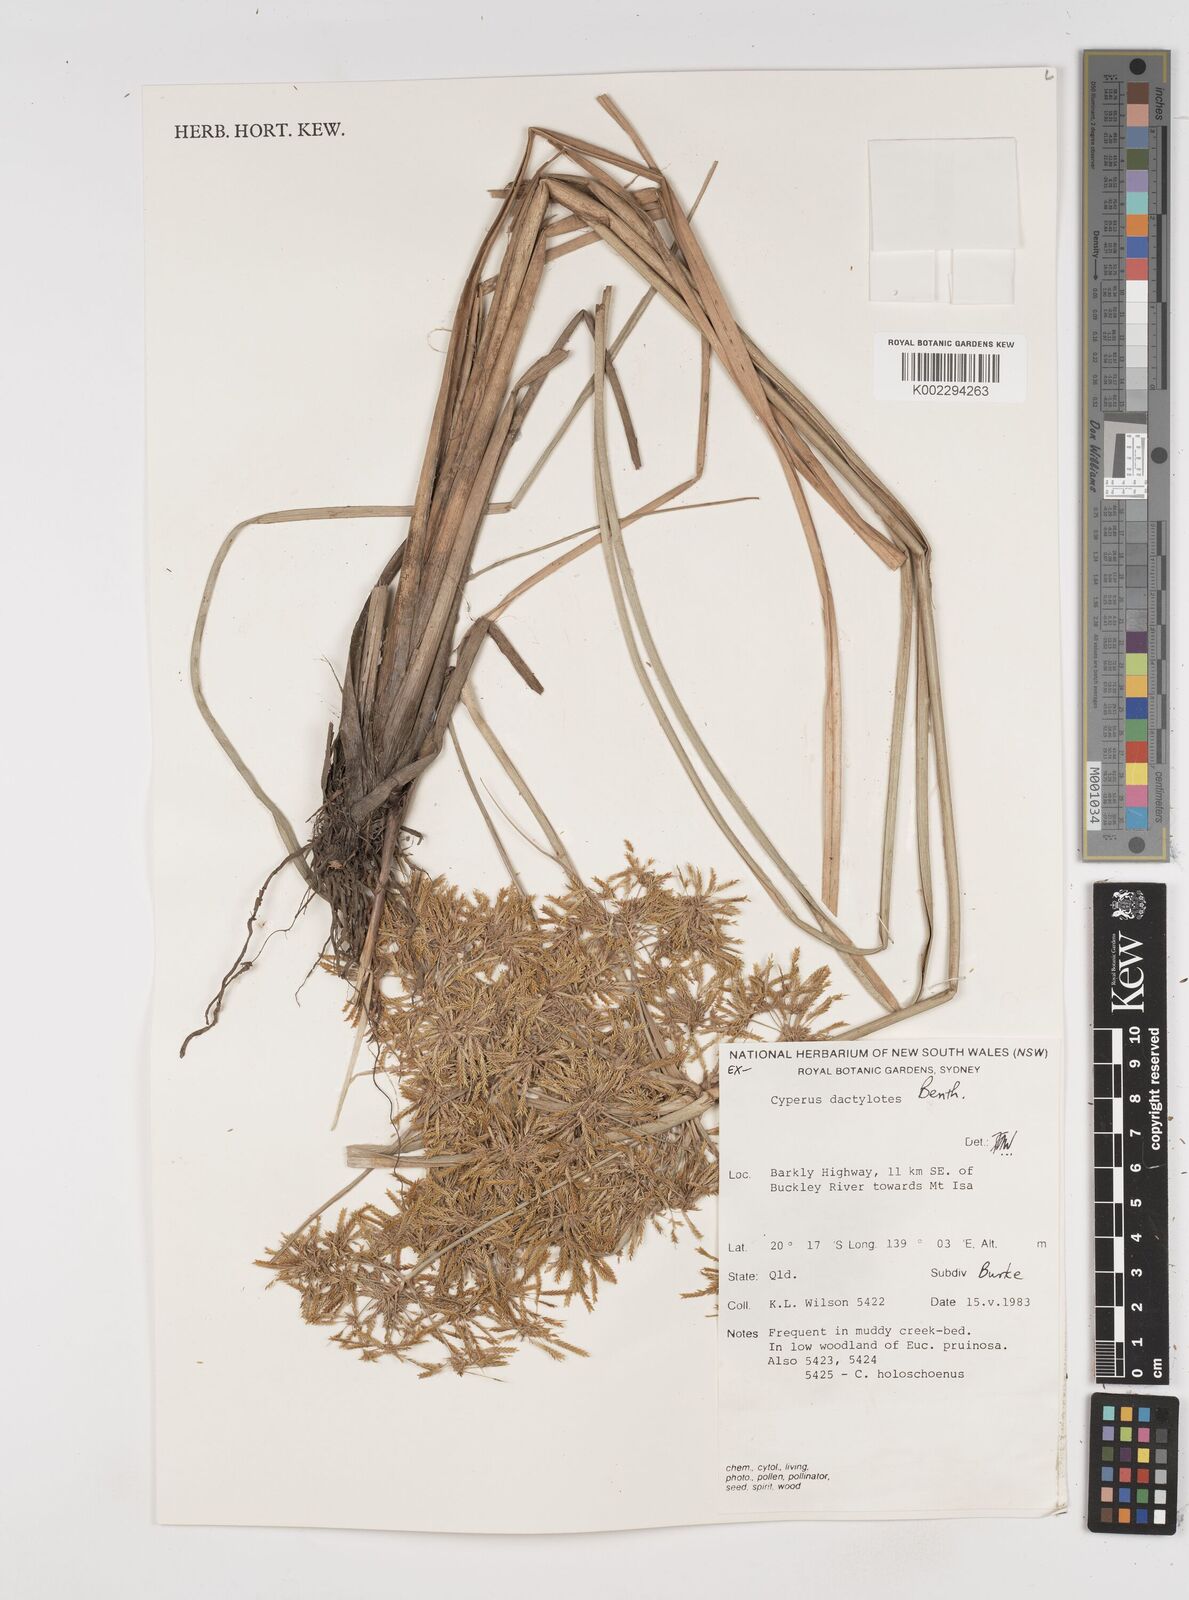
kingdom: Plantae
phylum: Tracheophyta
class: Liliopsida
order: Poales
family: Cyperaceae
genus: Cyperus
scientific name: Cyperus dactylotes
